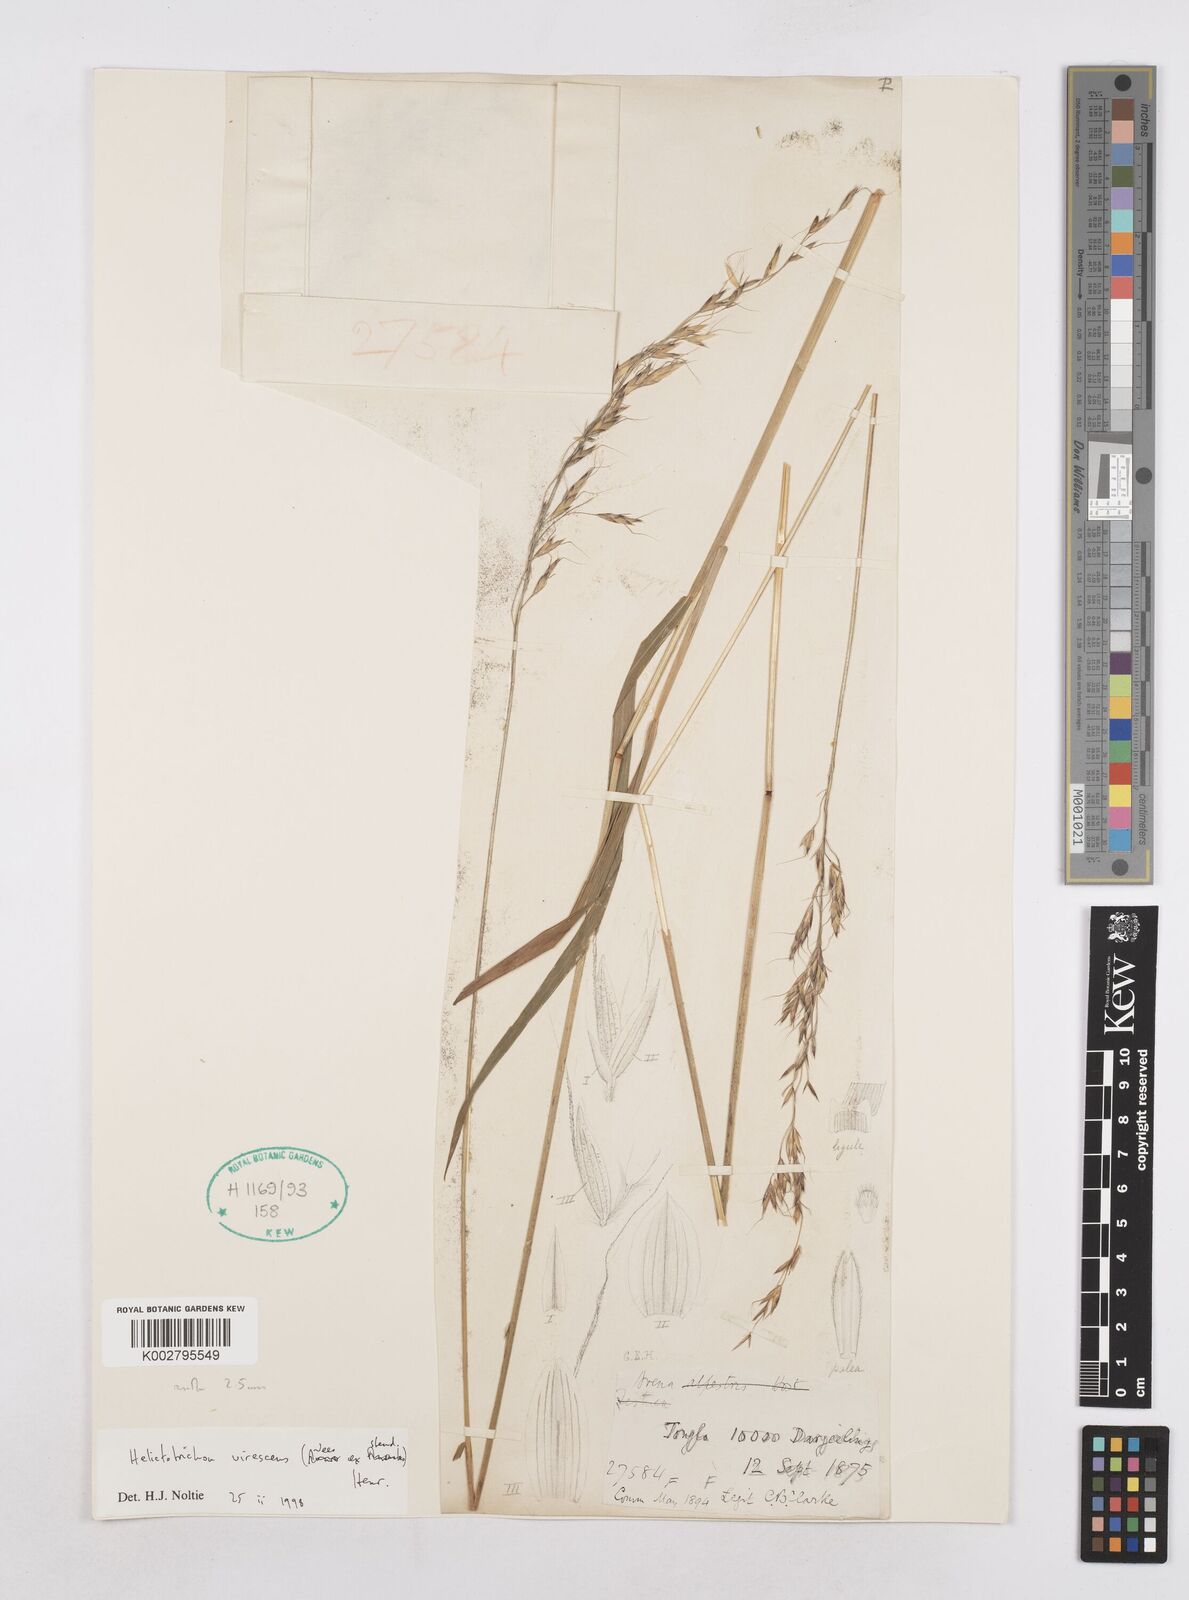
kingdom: Plantae
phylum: Tracheophyta
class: Liliopsida
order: Poales
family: Poaceae
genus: Trisetopsis
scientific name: Trisetopsis junghuhnii
